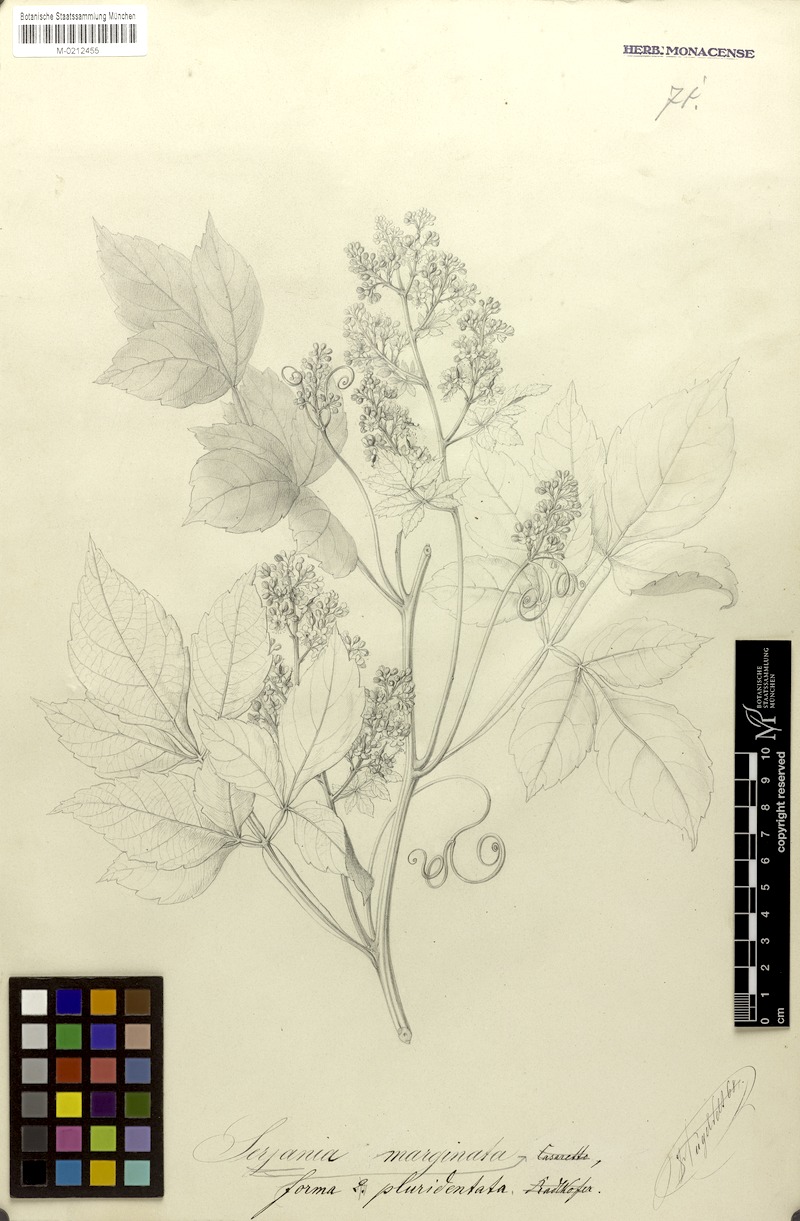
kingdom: Plantae
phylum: Tracheophyta
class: Magnoliopsida
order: Sapindales
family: Sapindaceae
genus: Serjania
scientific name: Serjania marginata
